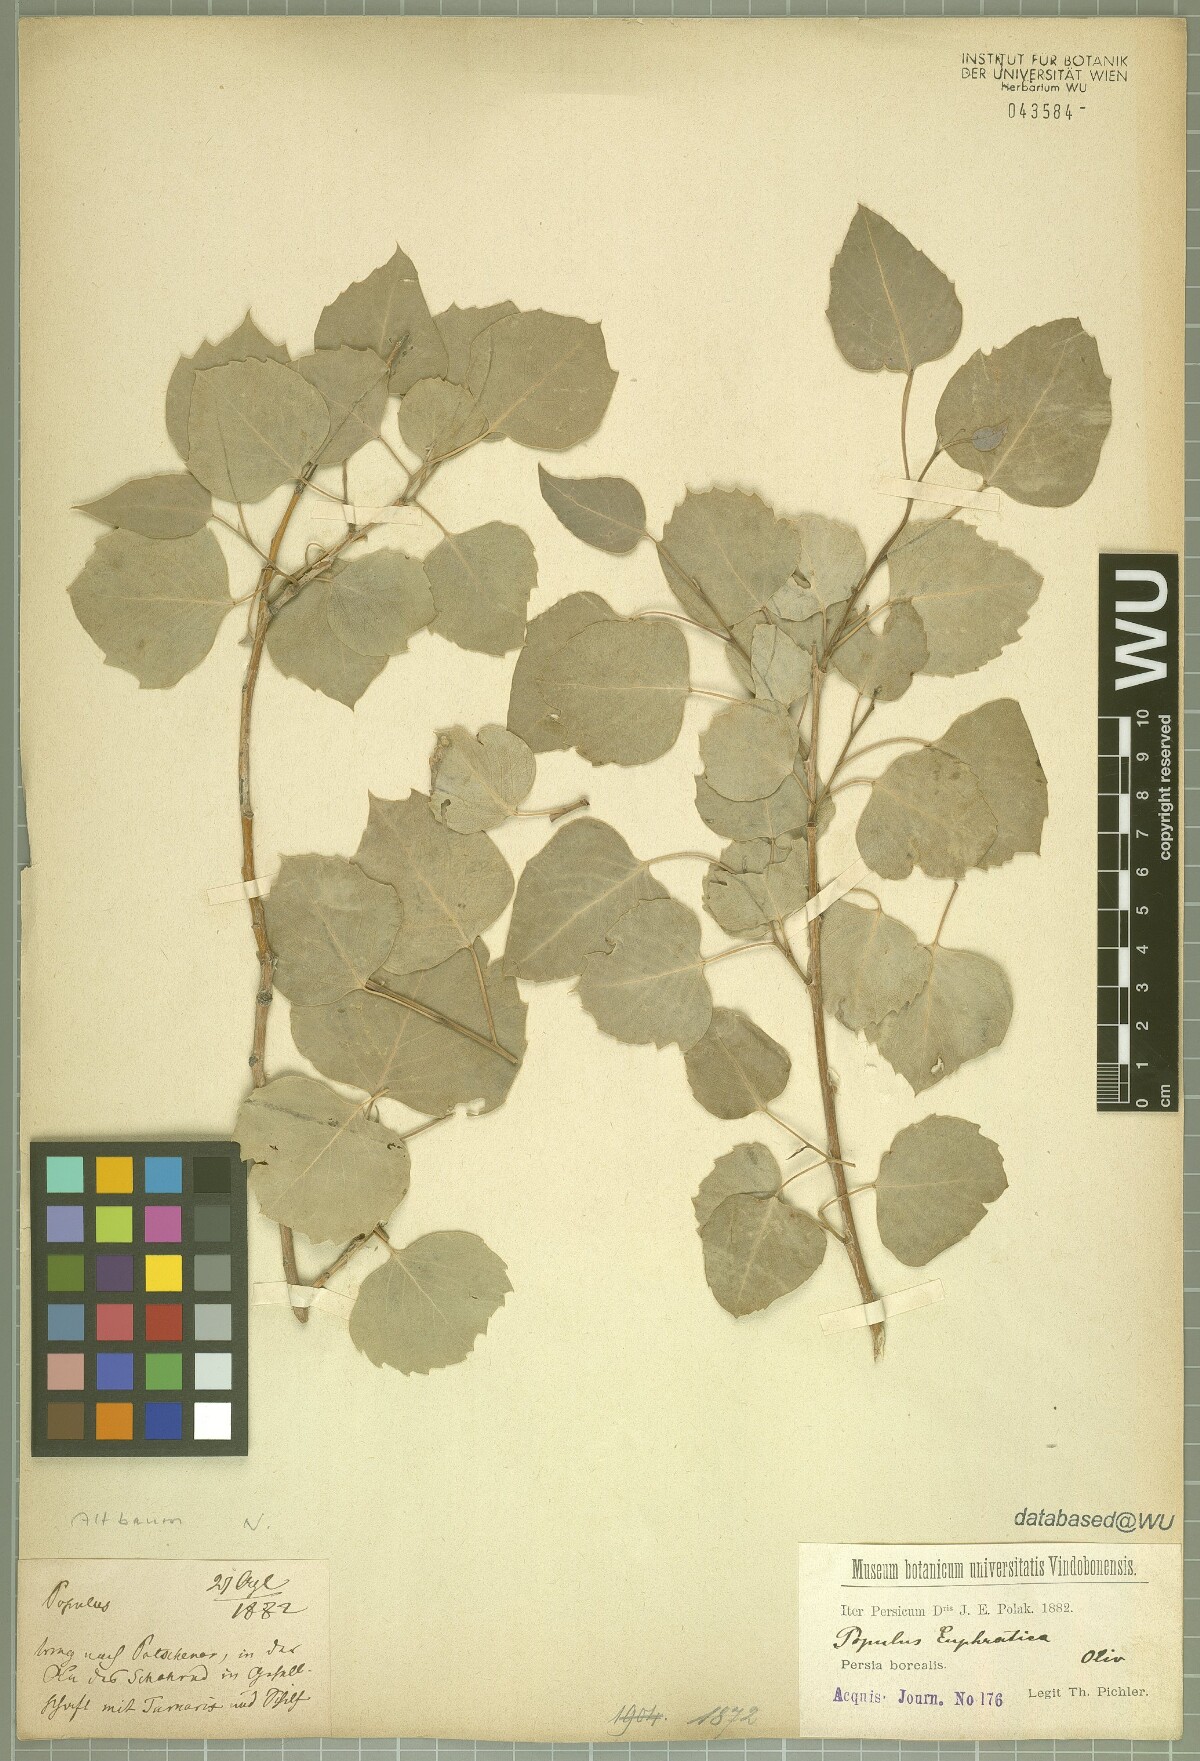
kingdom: Plantae
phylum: Tracheophyta
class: Magnoliopsida
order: Malpighiales
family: Salicaceae
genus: Populus
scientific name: Populus euphratica
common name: Euphrates poplar
